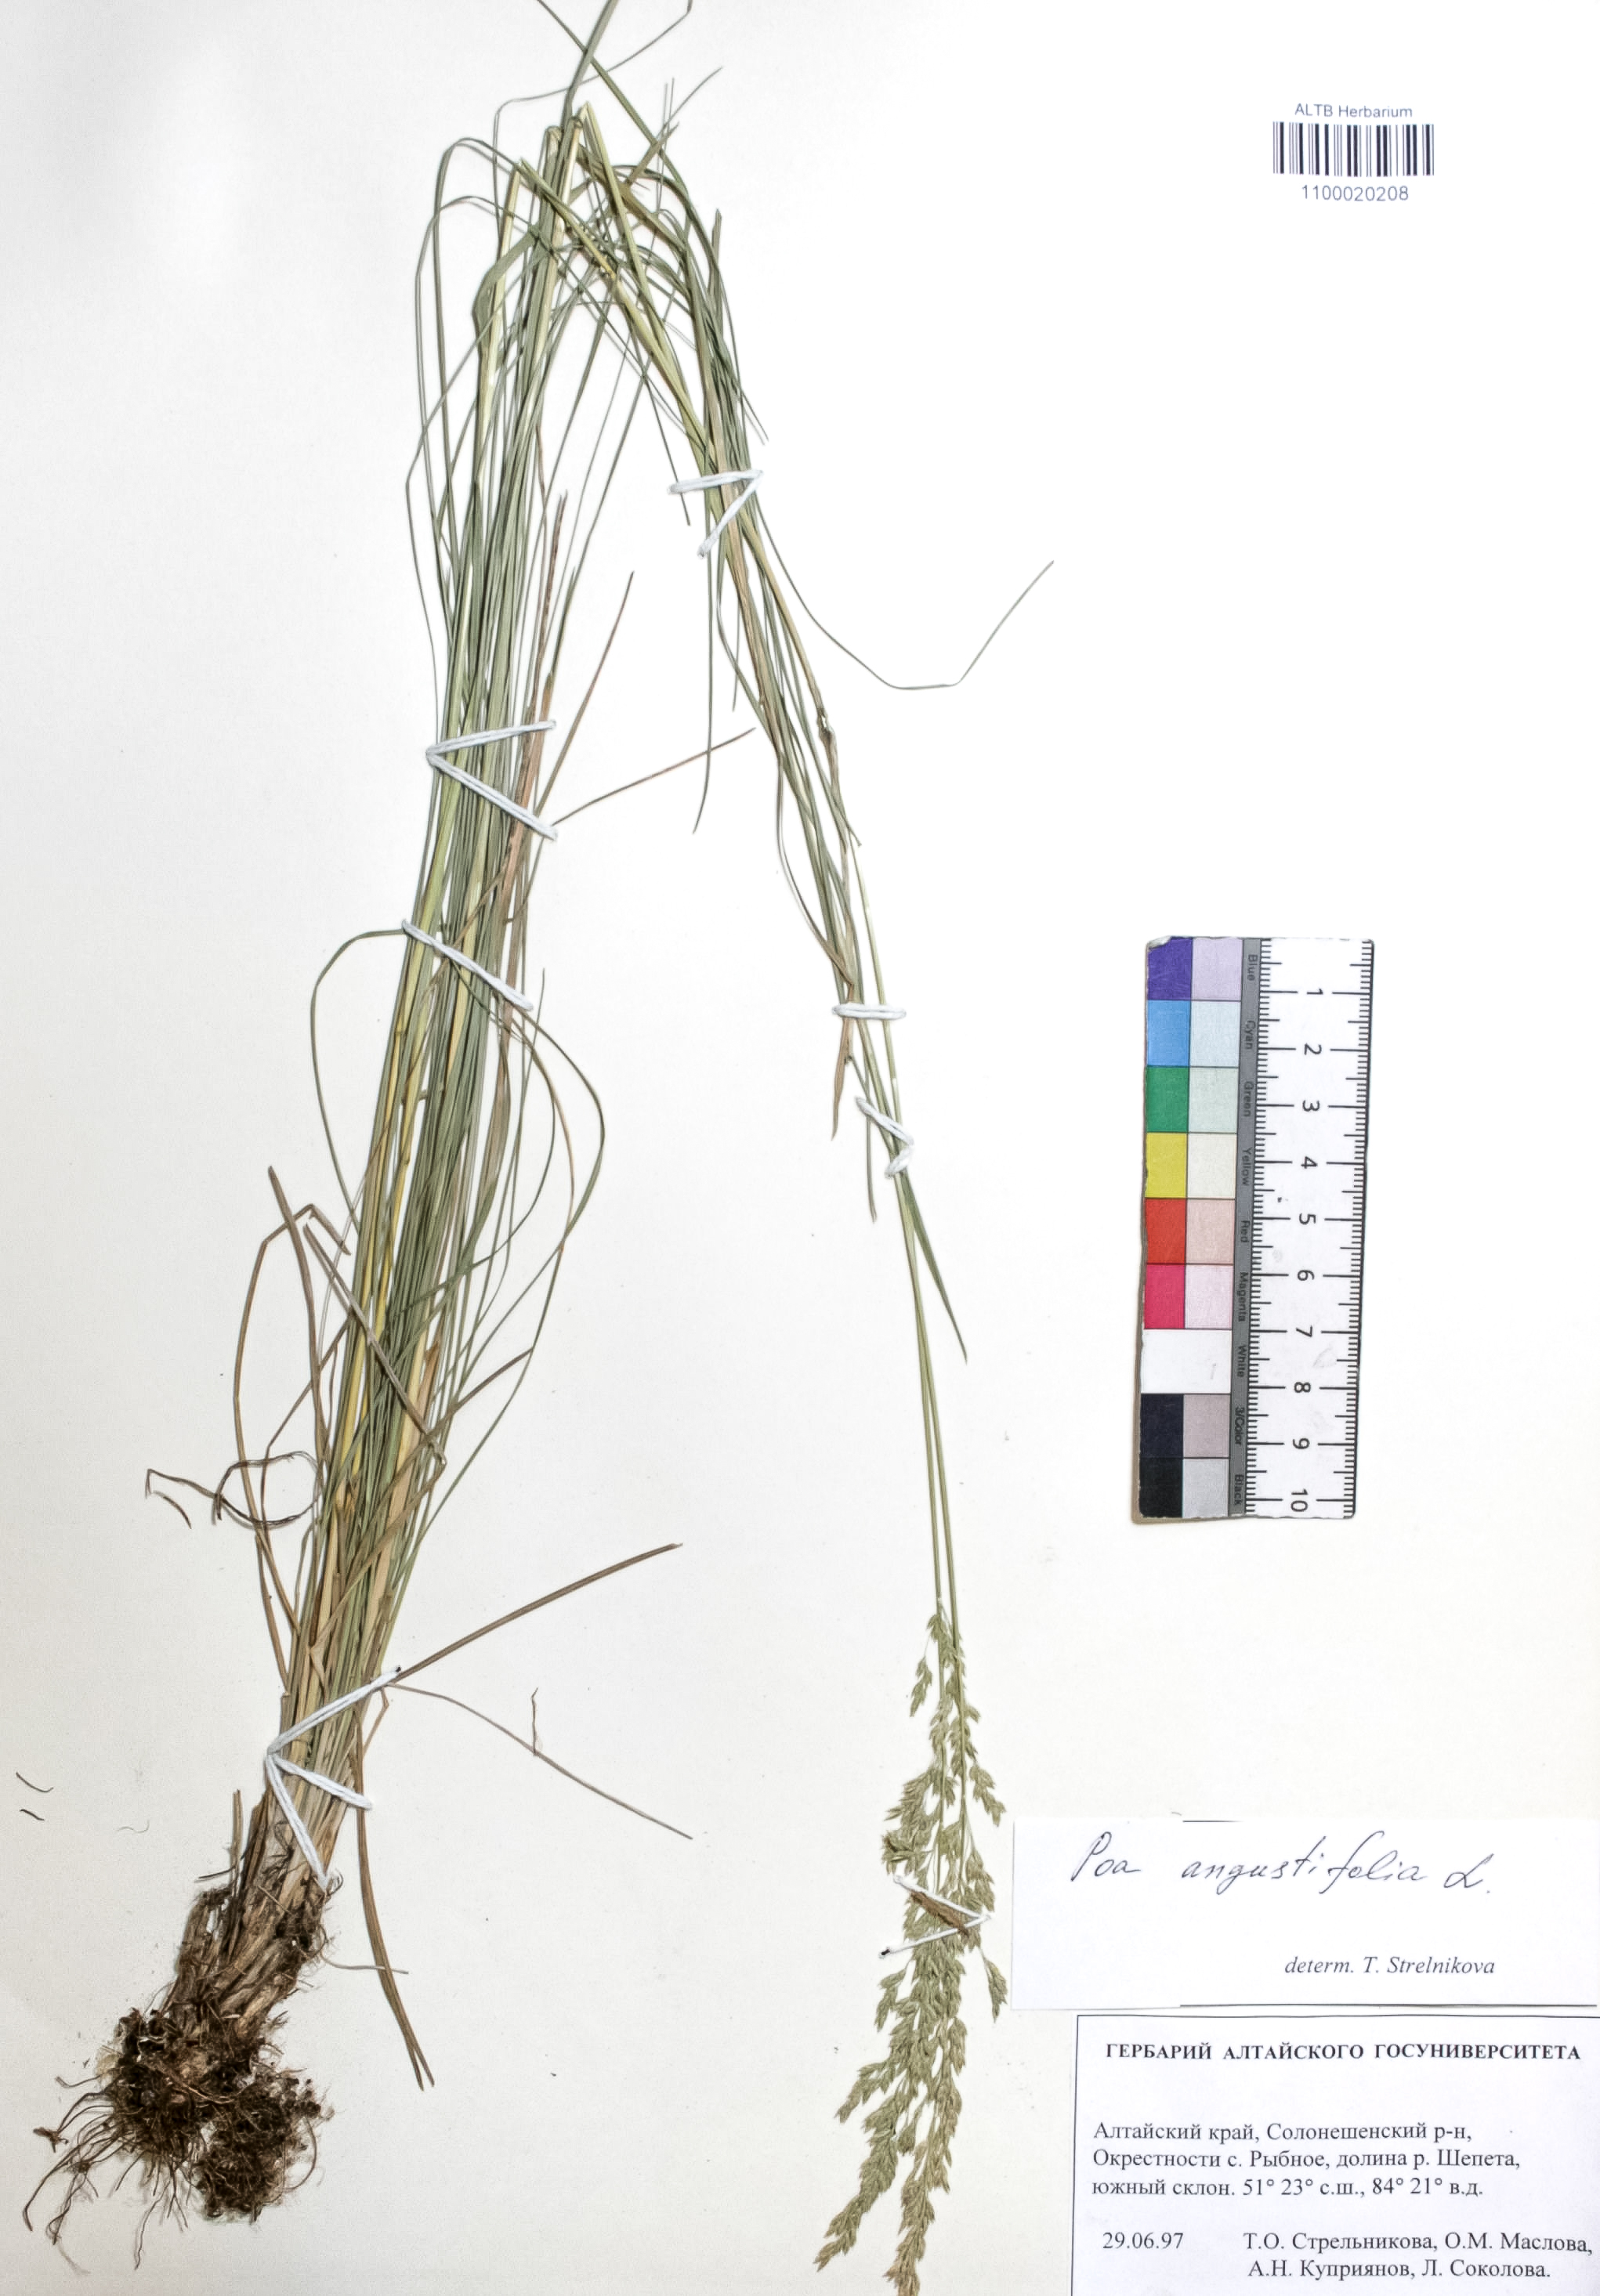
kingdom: Plantae
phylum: Tracheophyta
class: Liliopsida
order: Poales
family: Poaceae
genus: Poa
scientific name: Poa angustifolia
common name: Narrow-leaved meadow-grass
